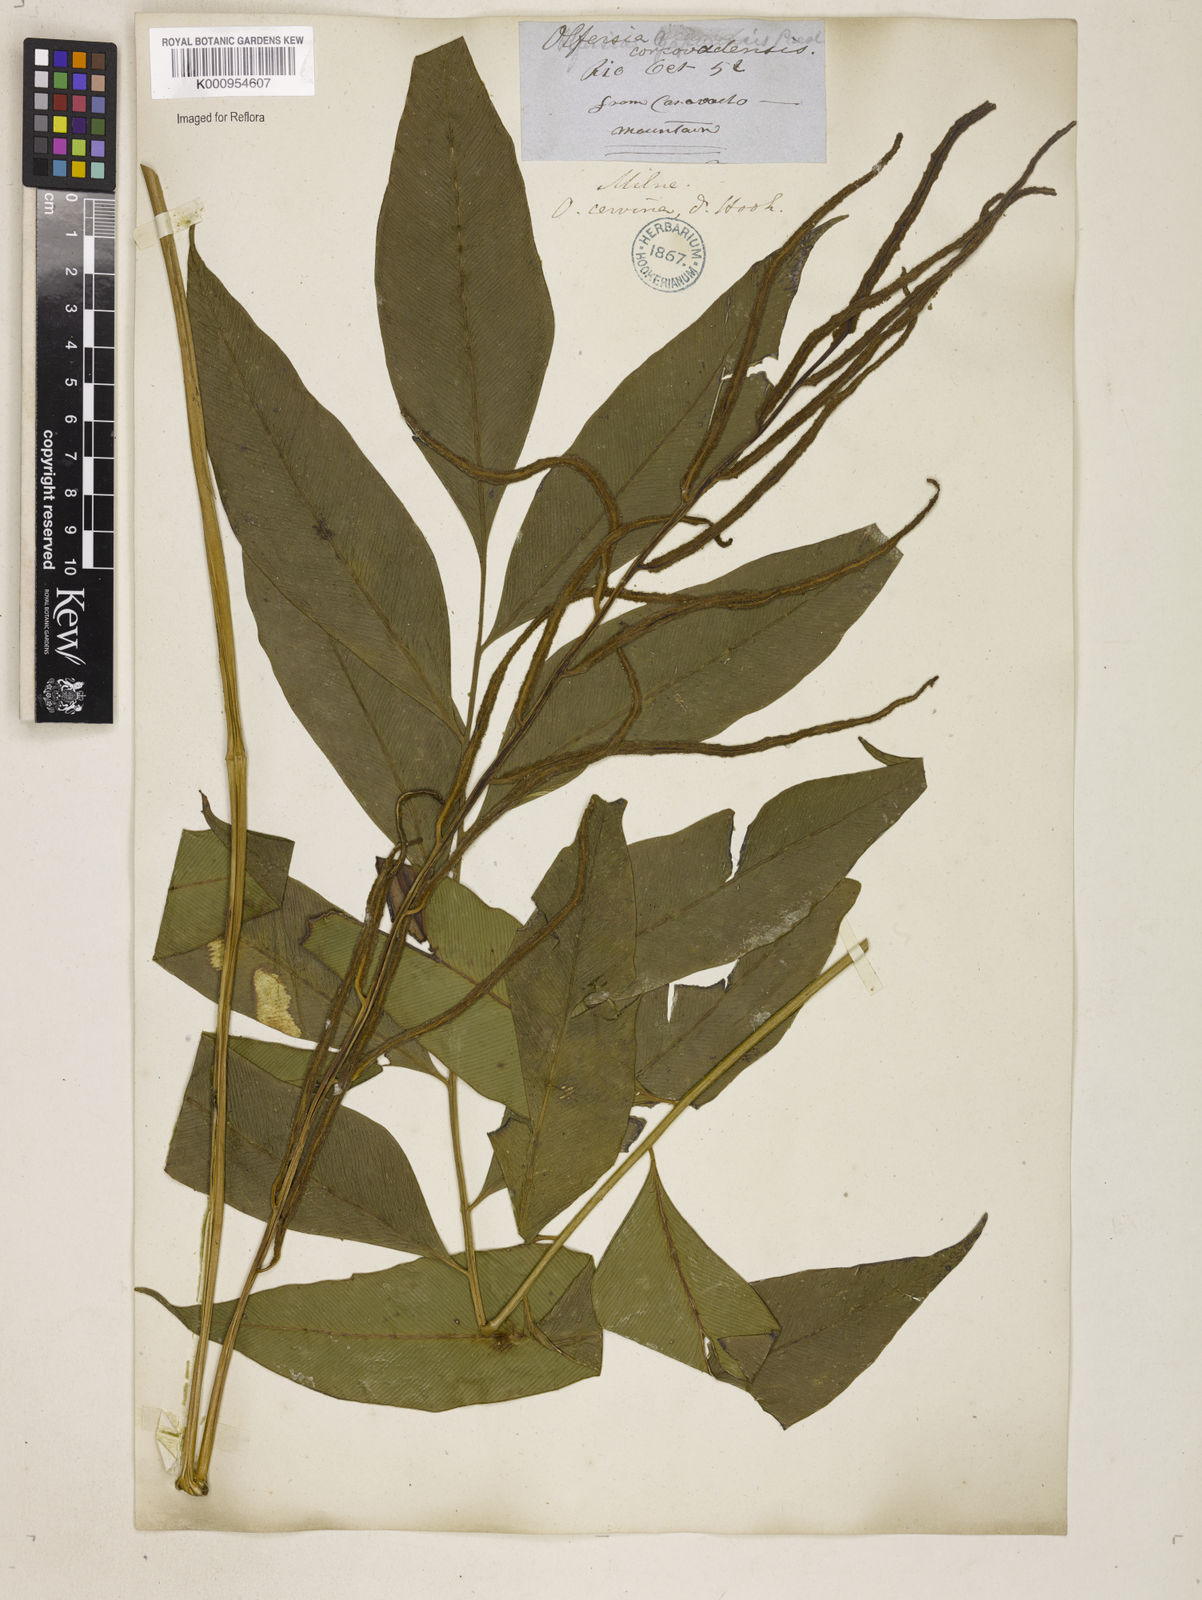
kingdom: Plantae
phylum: Tracheophyta
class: Polypodiopsida
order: Polypodiales
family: Dryopteridaceae
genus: Polystichum
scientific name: Polystichum
